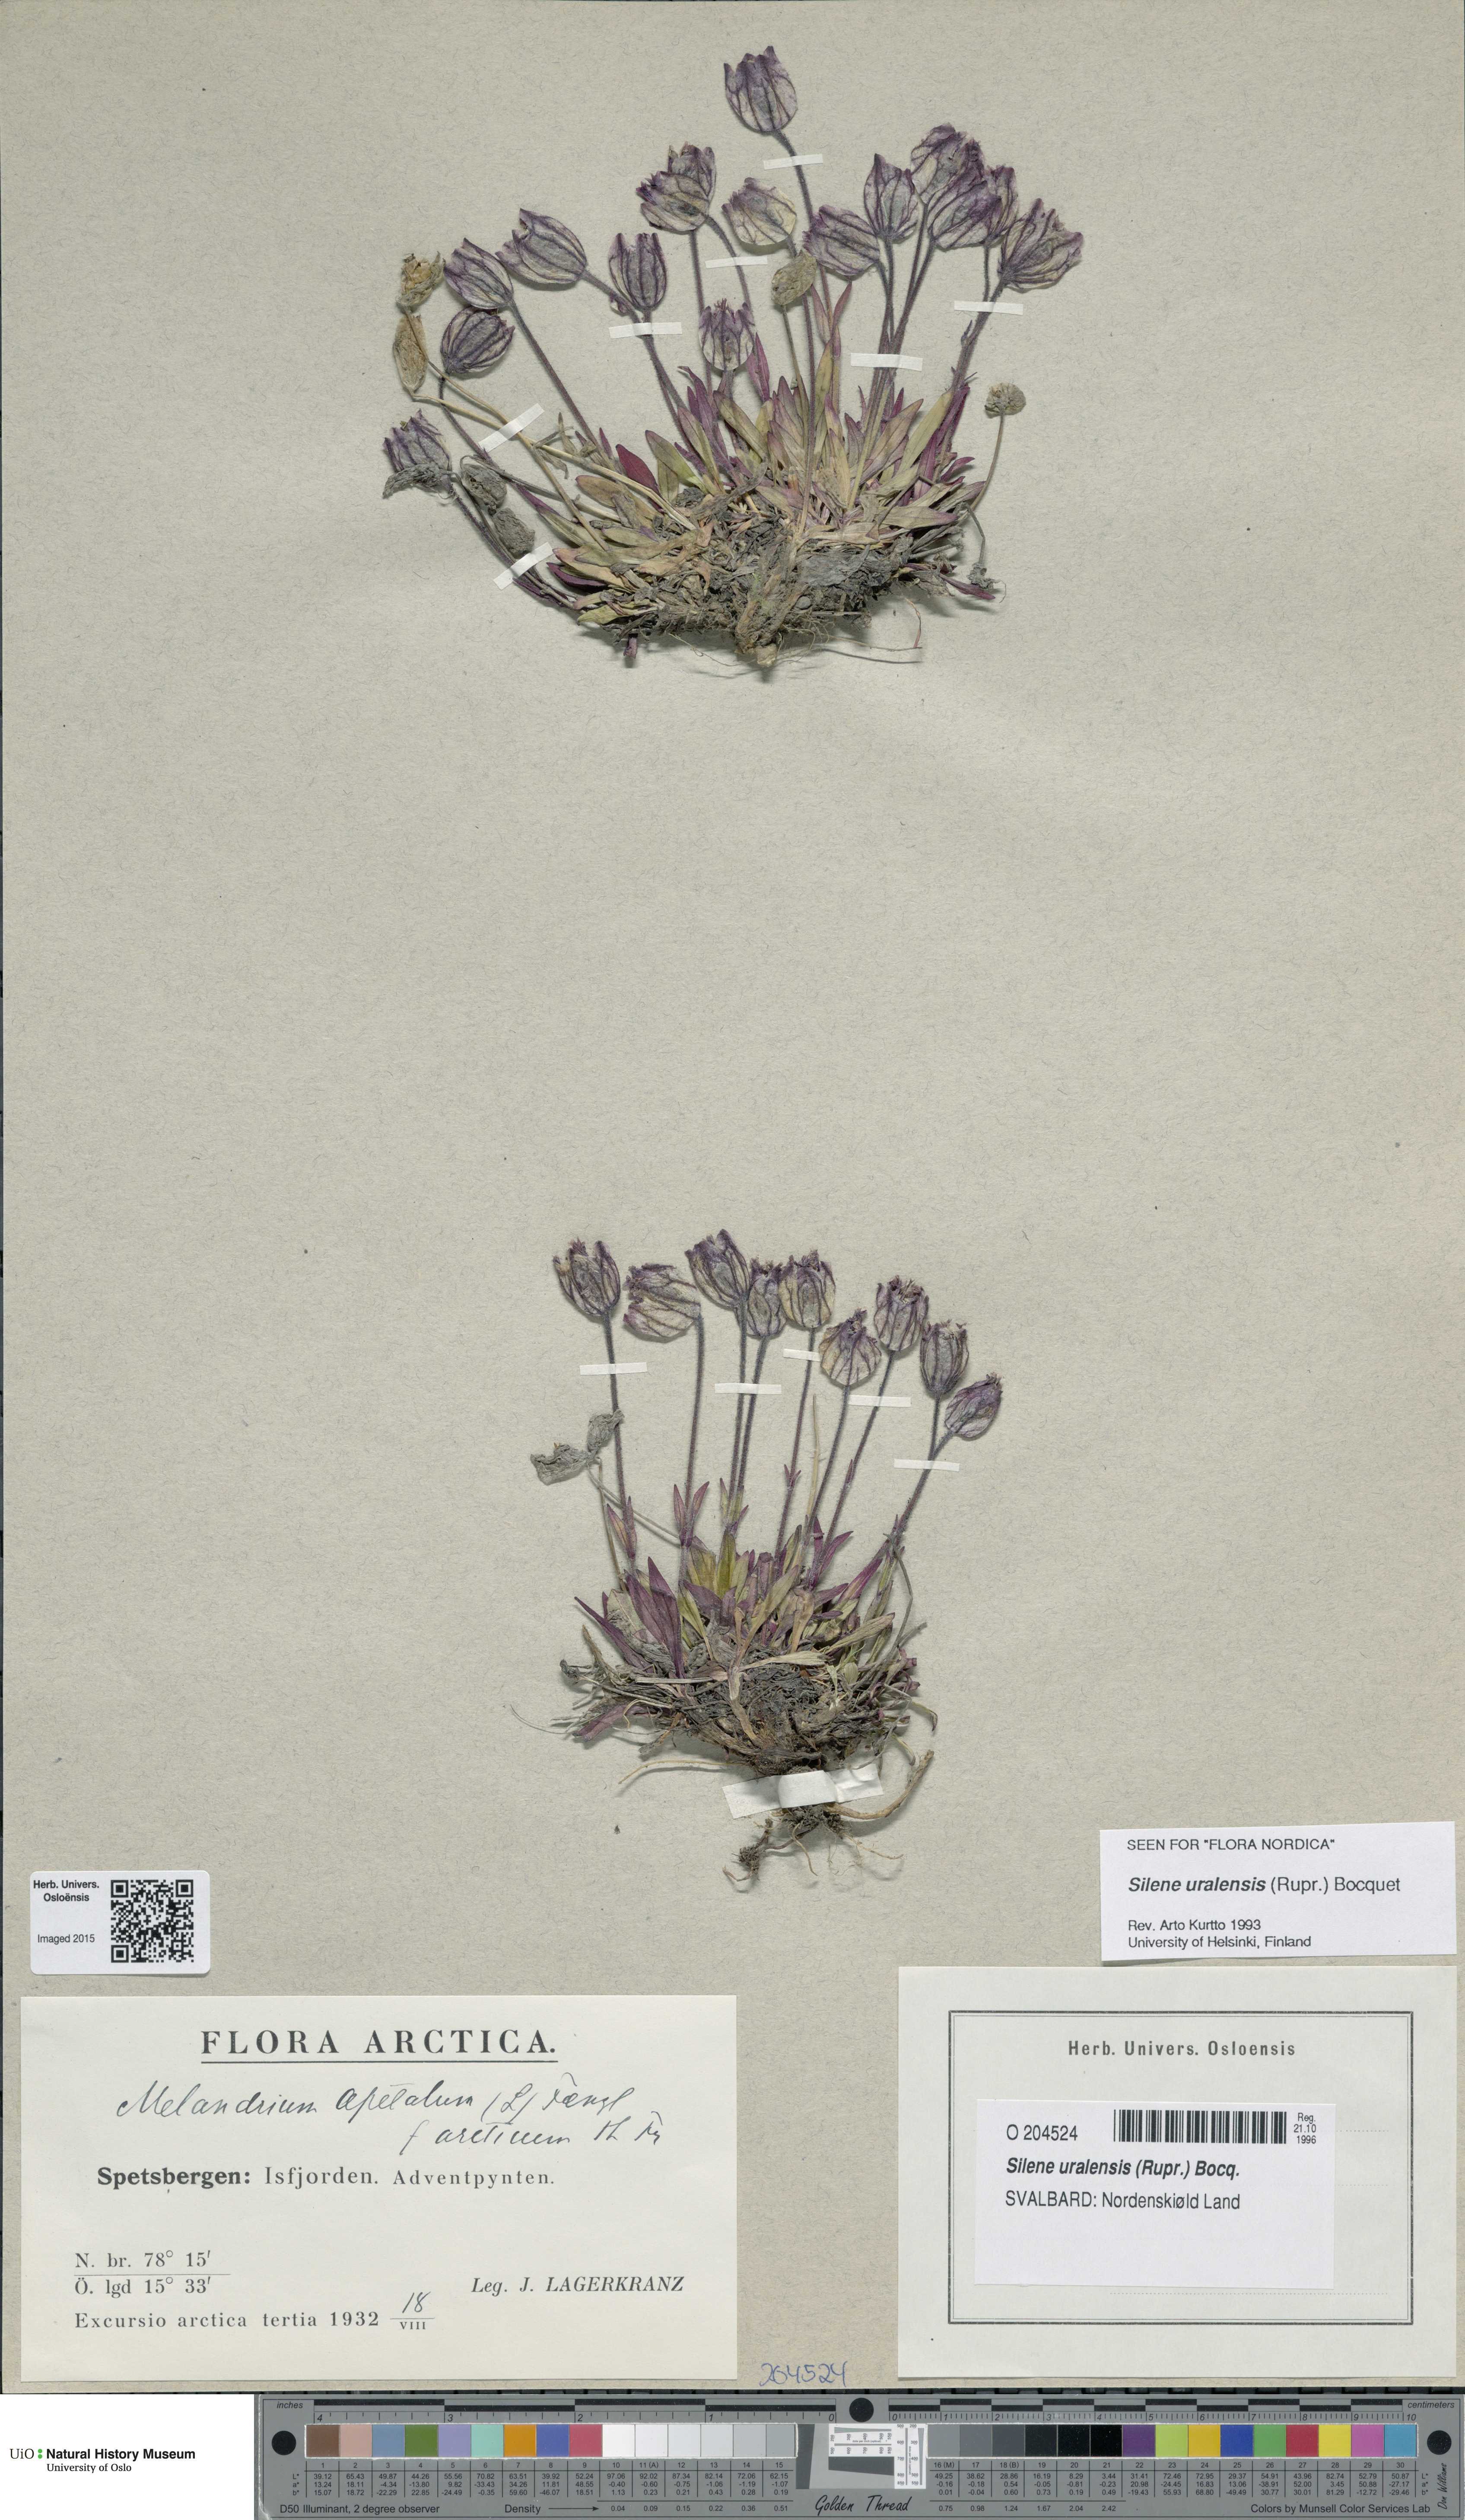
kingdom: Plantae
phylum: Tracheophyta
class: Magnoliopsida
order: Caryophyllales
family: Caryophyllaceae
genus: Silene
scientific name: Silene uralensis
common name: Nodding campion
